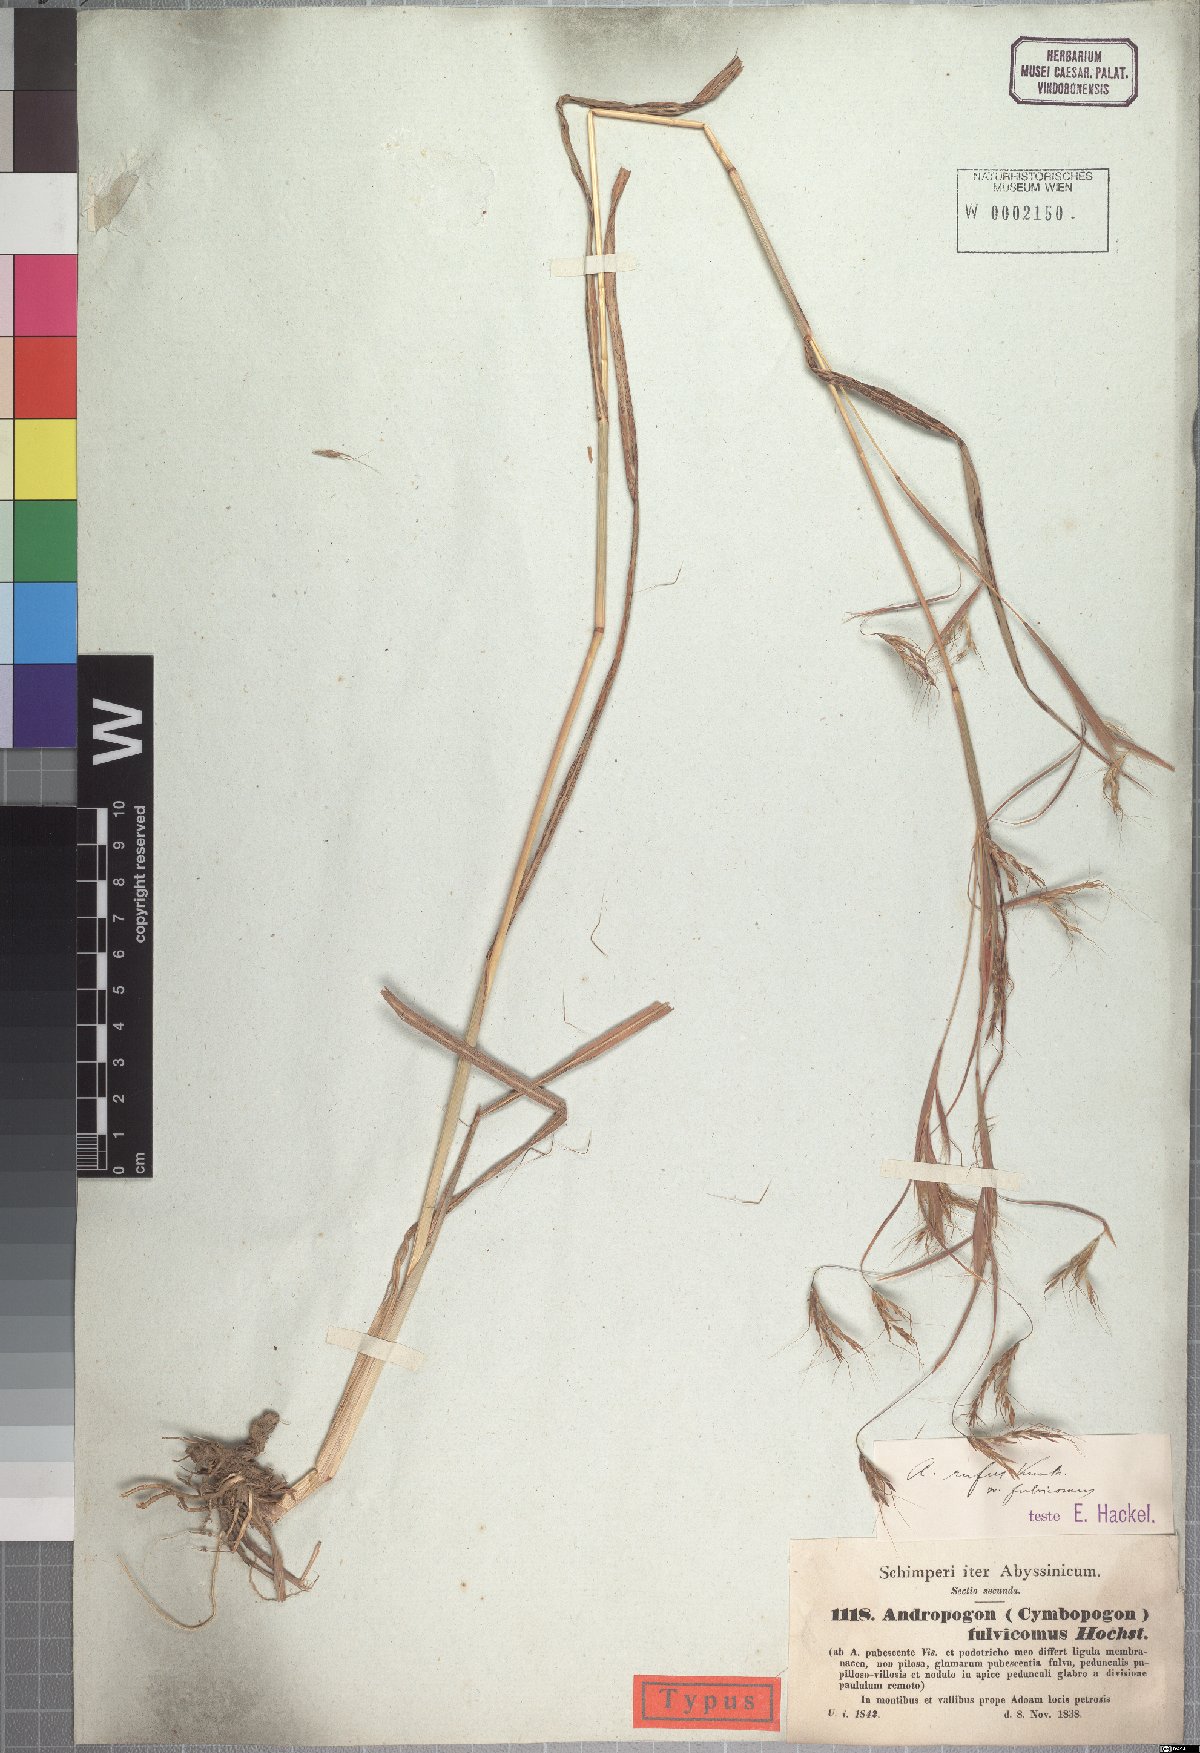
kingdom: Plantae
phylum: Tracheophyta
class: Liliopsida
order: Poales
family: Poaceae
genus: Hyparrhenia
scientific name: Hyparrhenia rufa
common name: Jaraguagrass
